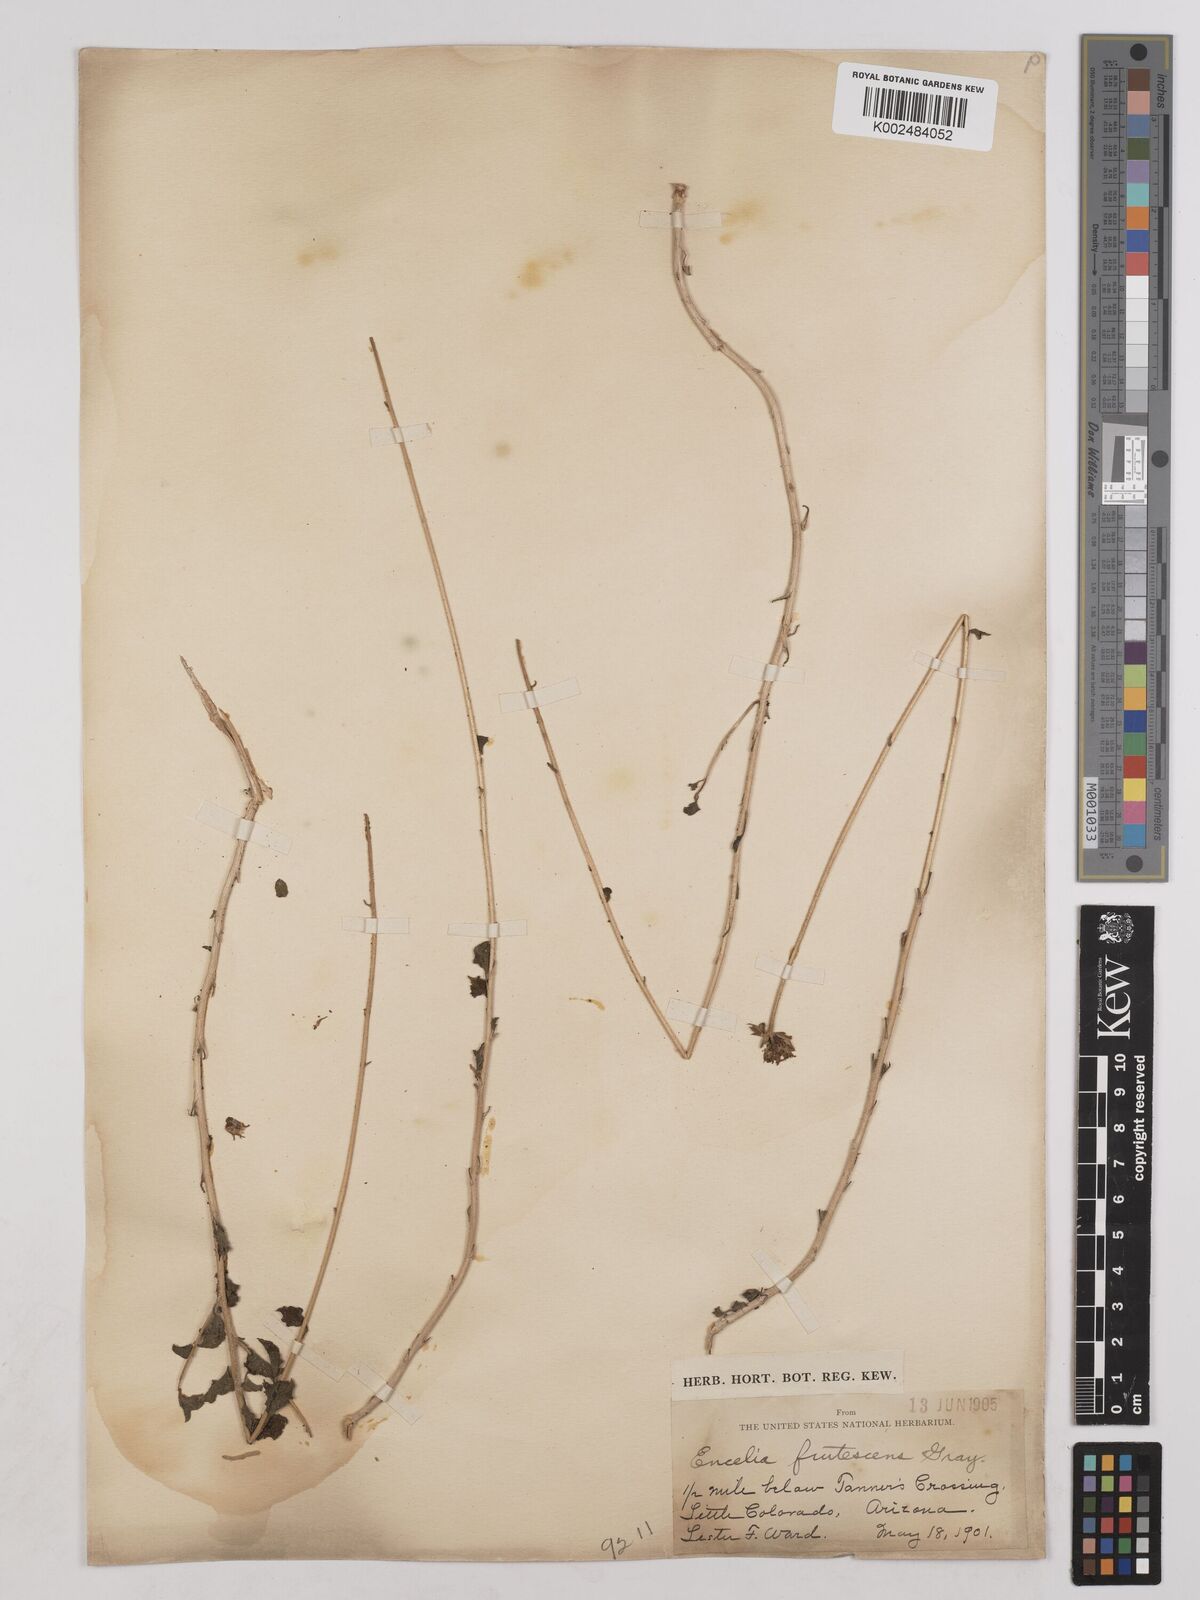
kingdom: Plantae
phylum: Tracheophyta
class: Magnoliopsida
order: Asterales
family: Asteraceae
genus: Encelia
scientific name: Encelia frutescens
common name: Bush encelia
